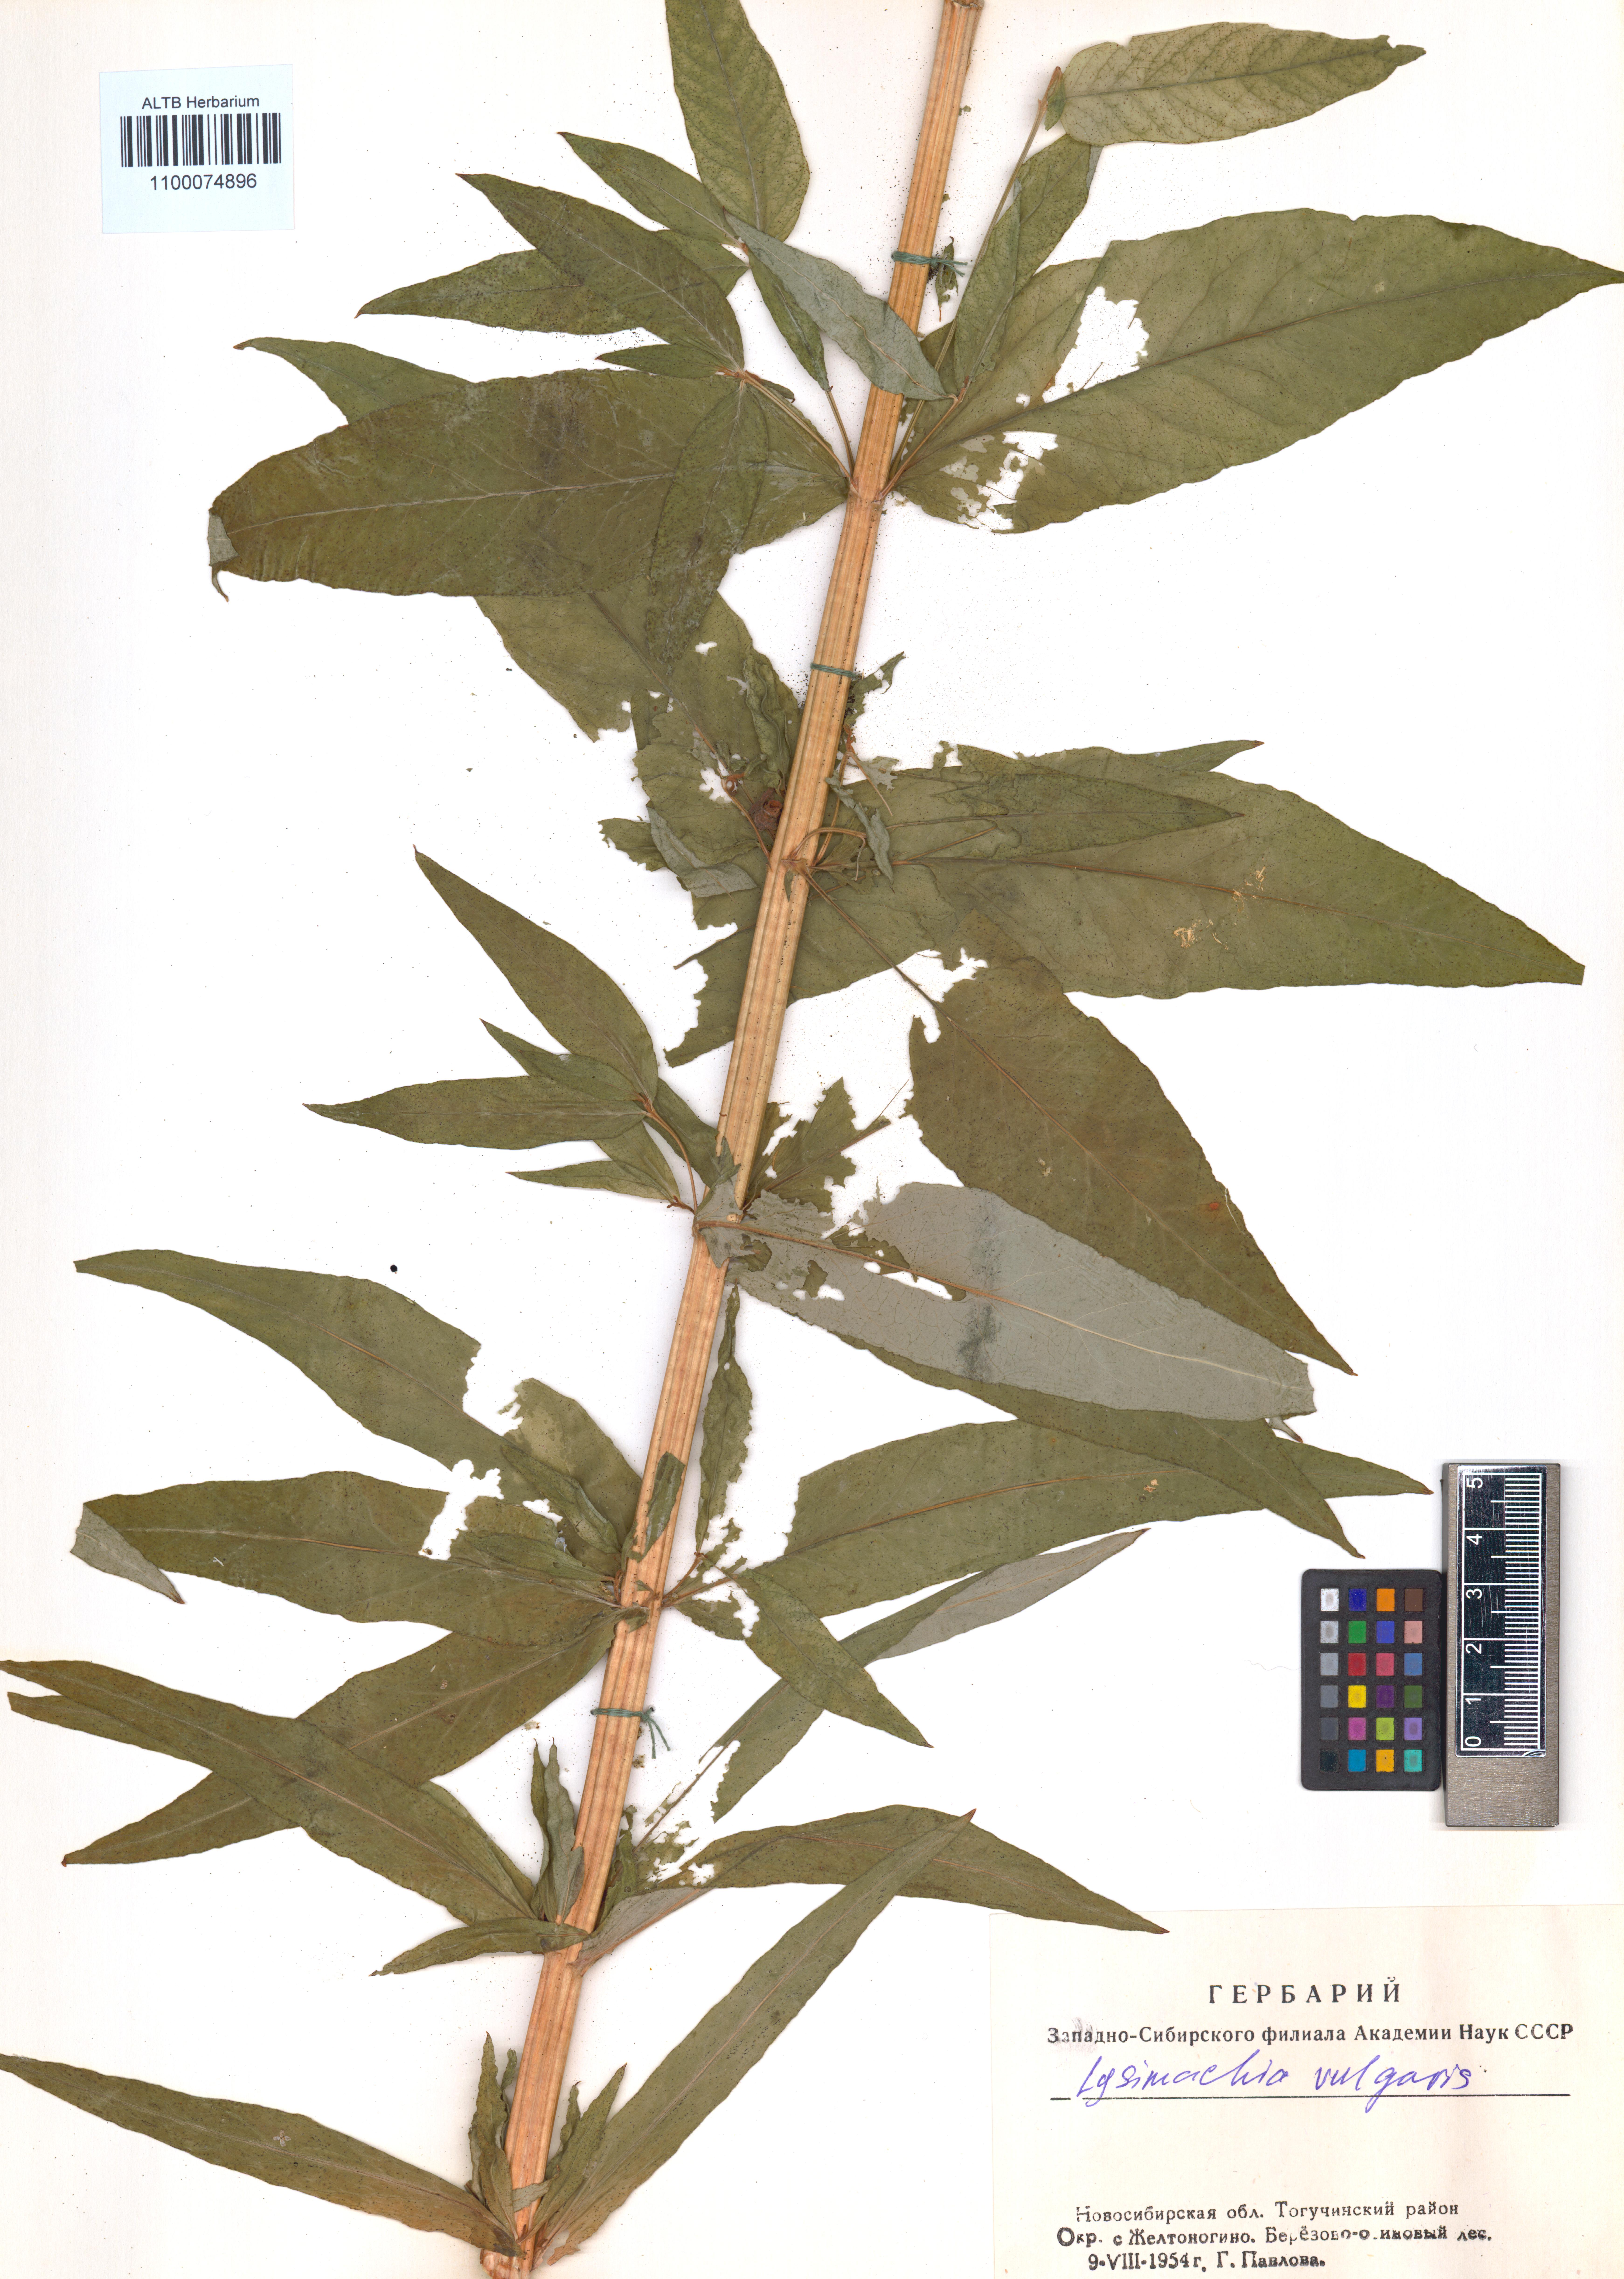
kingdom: Plantae
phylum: Tracheophyta
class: Magnoliopsida
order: Ericales
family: Primulaceae
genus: Lysimachia
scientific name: Lysimachia vulgaris
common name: Yellow loosestrife
